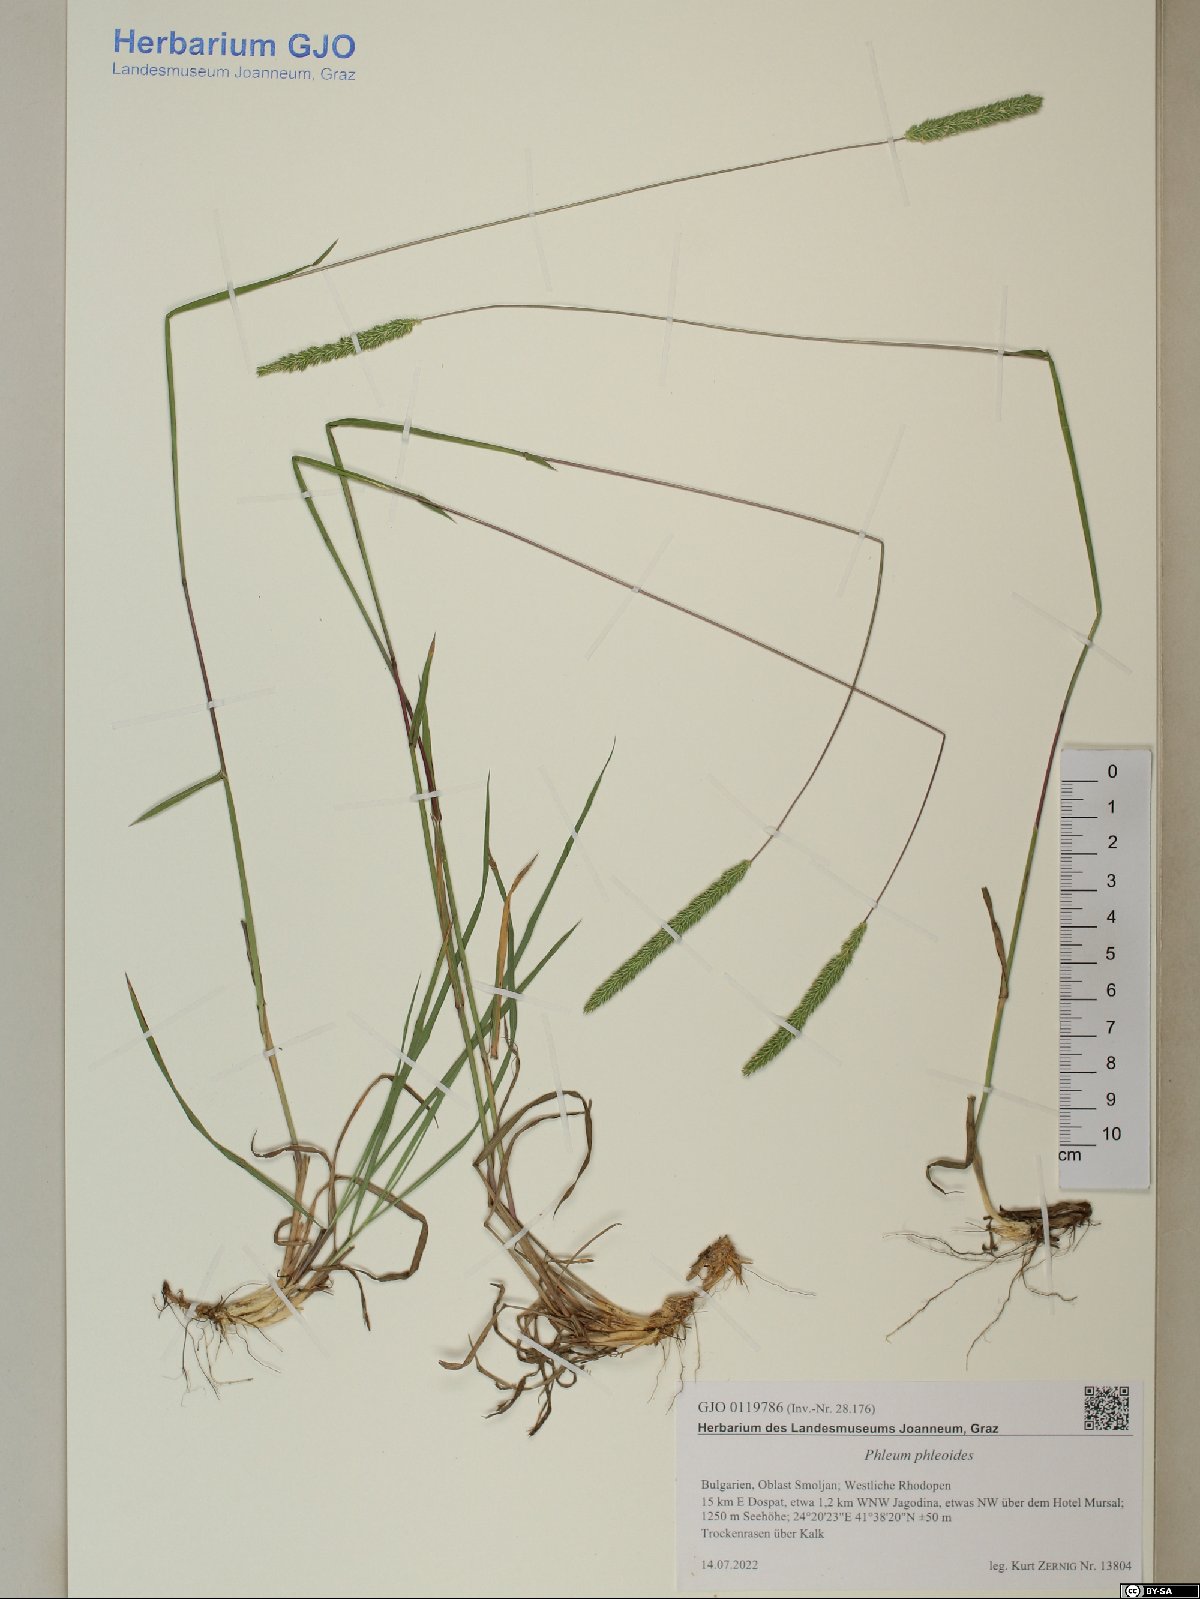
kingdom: Plantae
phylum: Tracheophyta
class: Liliopsida
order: Poales
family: Poaceae
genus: Phleum
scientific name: Phleum phleoides
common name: Purple-stem cat's-tail
